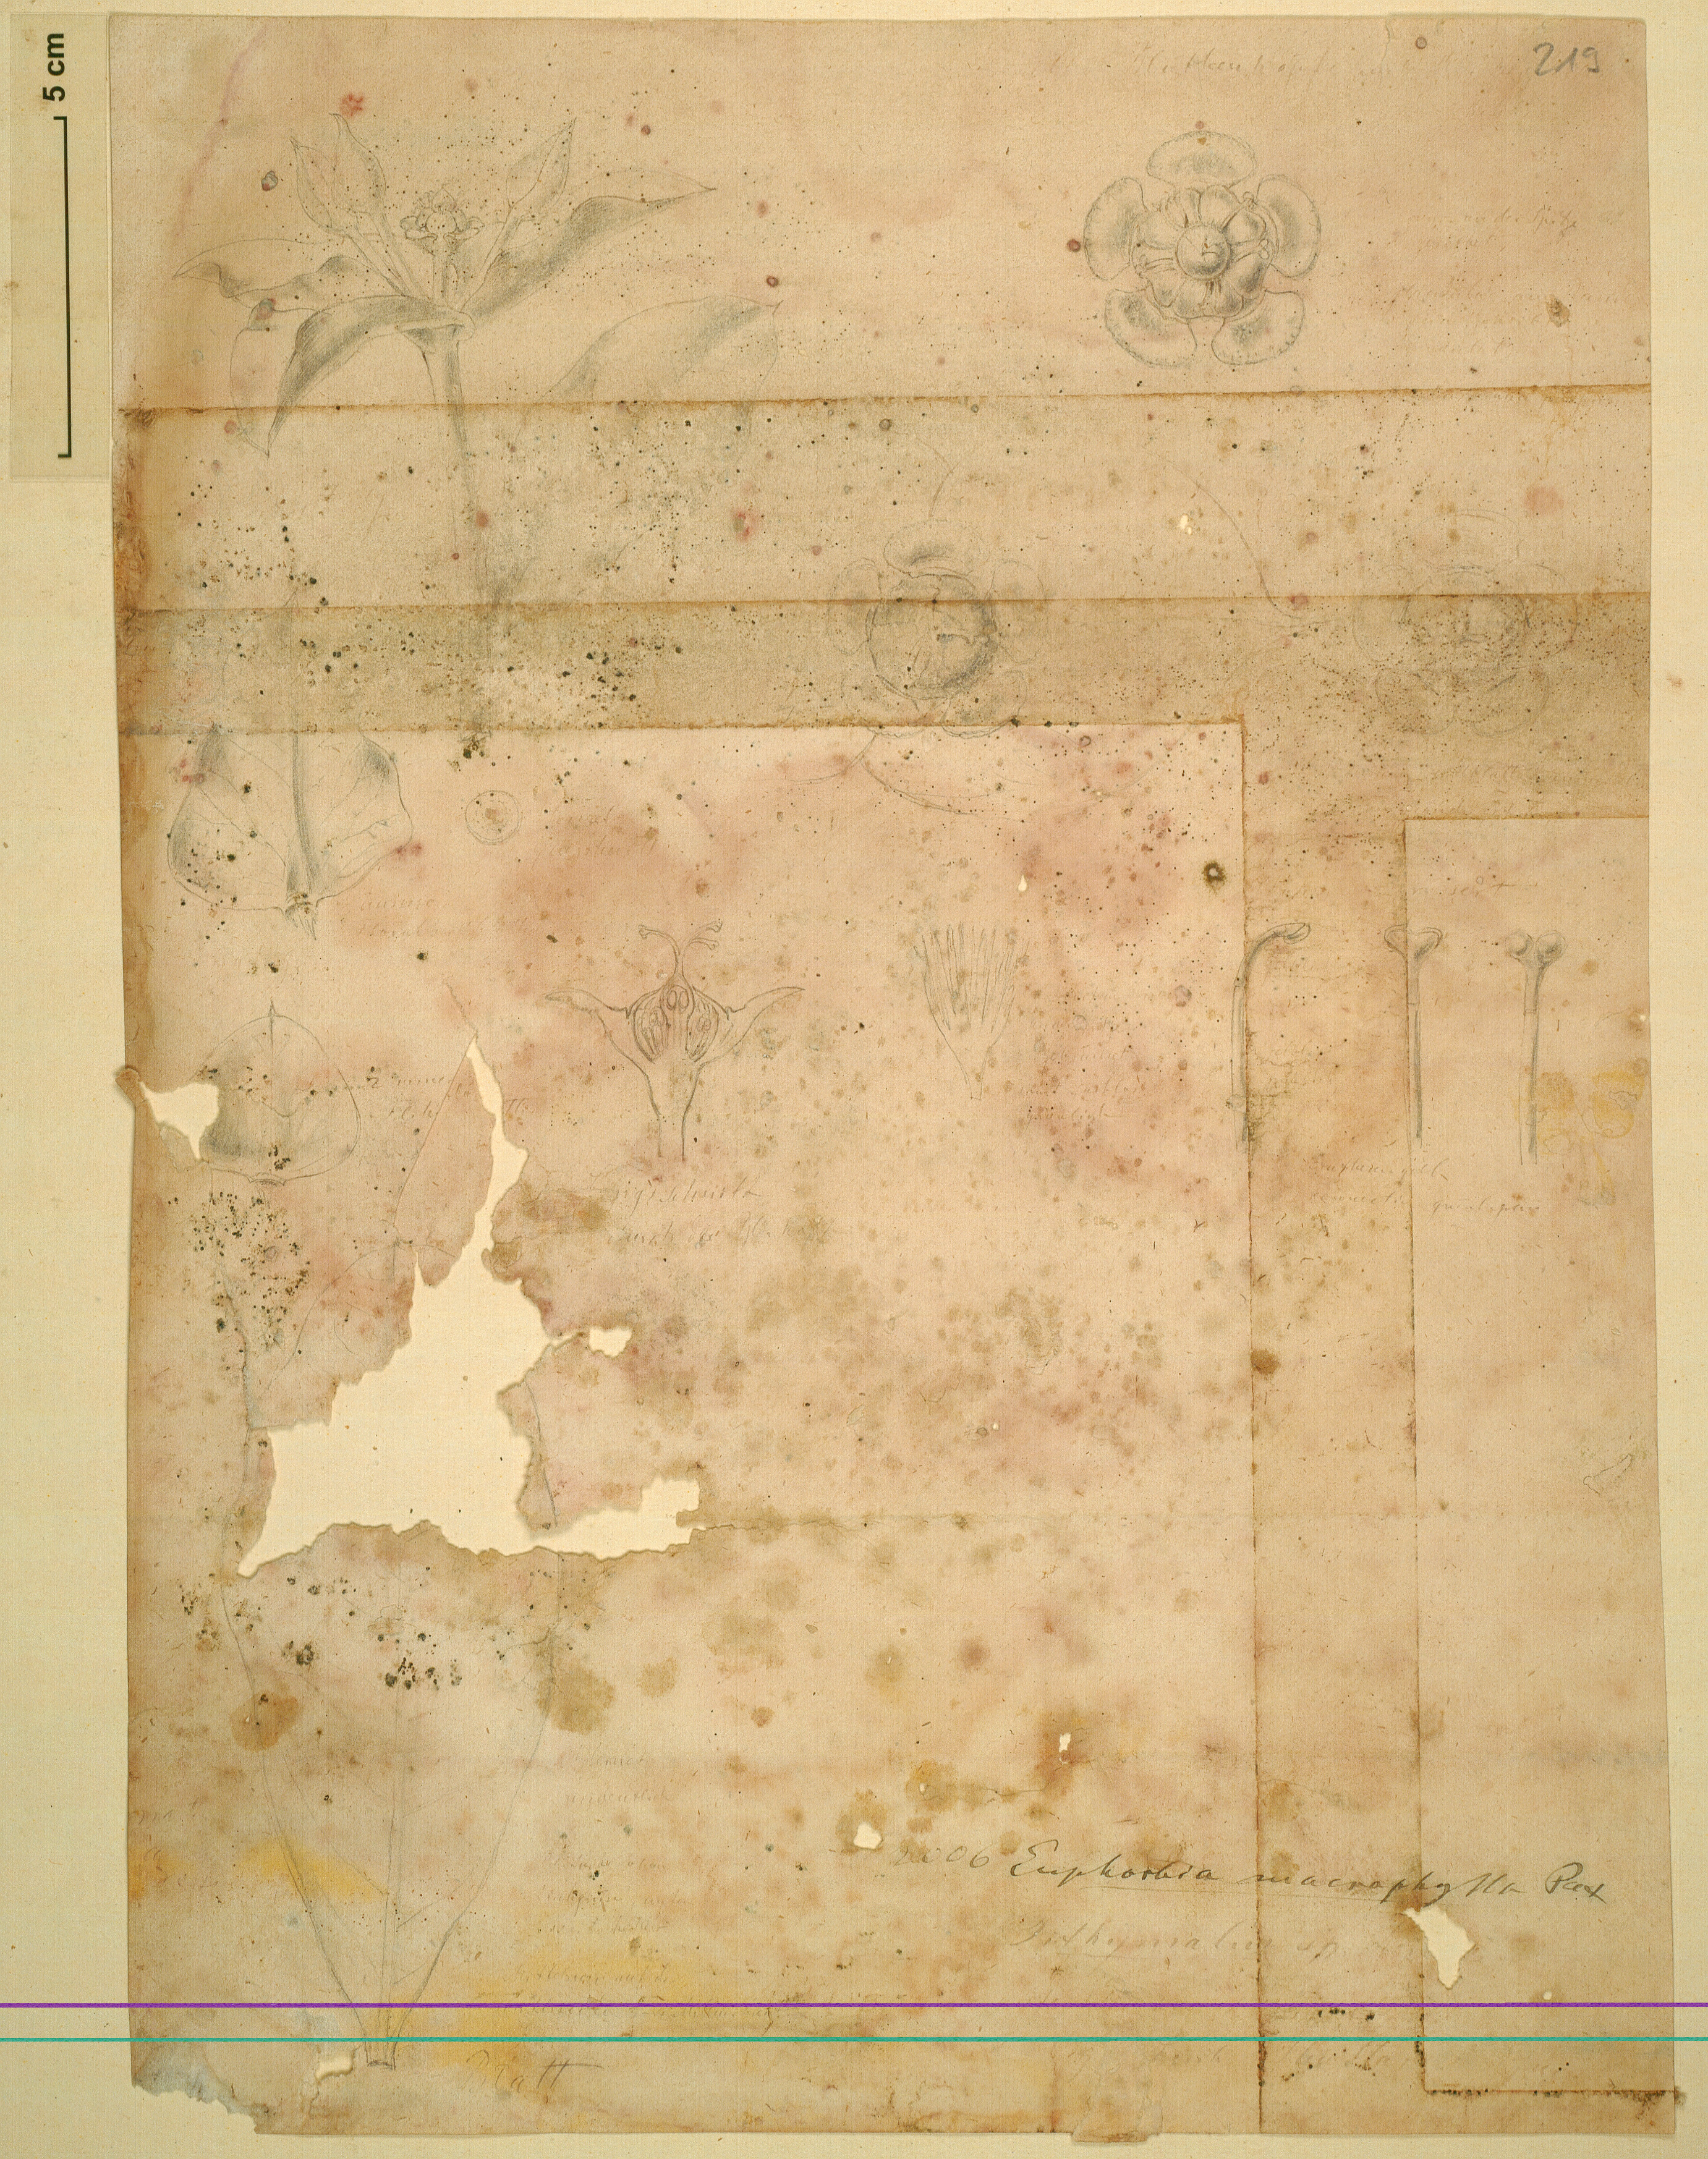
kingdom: Plantae
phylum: Tracheophyta
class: Magnoliopsida
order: Malpighiales
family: Euphorbiaceae
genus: Euphorbia
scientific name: Euphorbia macrophylla
